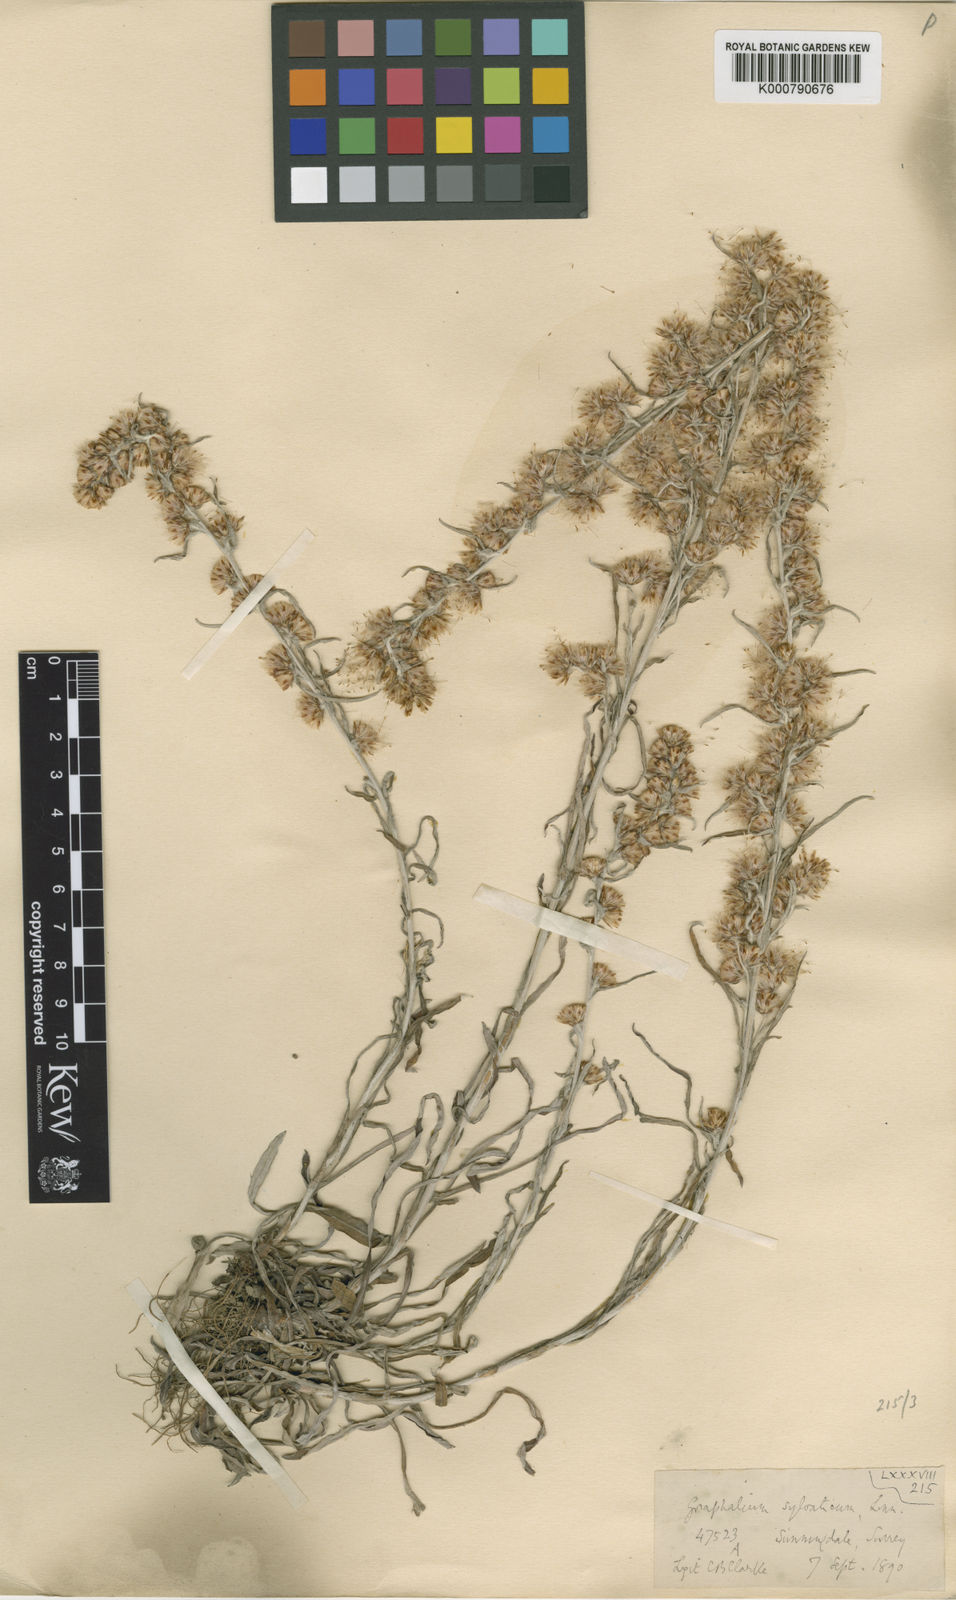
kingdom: Plantae
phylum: Tracheophyta
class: Magnoliopsida
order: Asterales
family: Asteraceae
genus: Omalotheca
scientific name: Omalotheca sylvatica
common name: Heath cudweed
